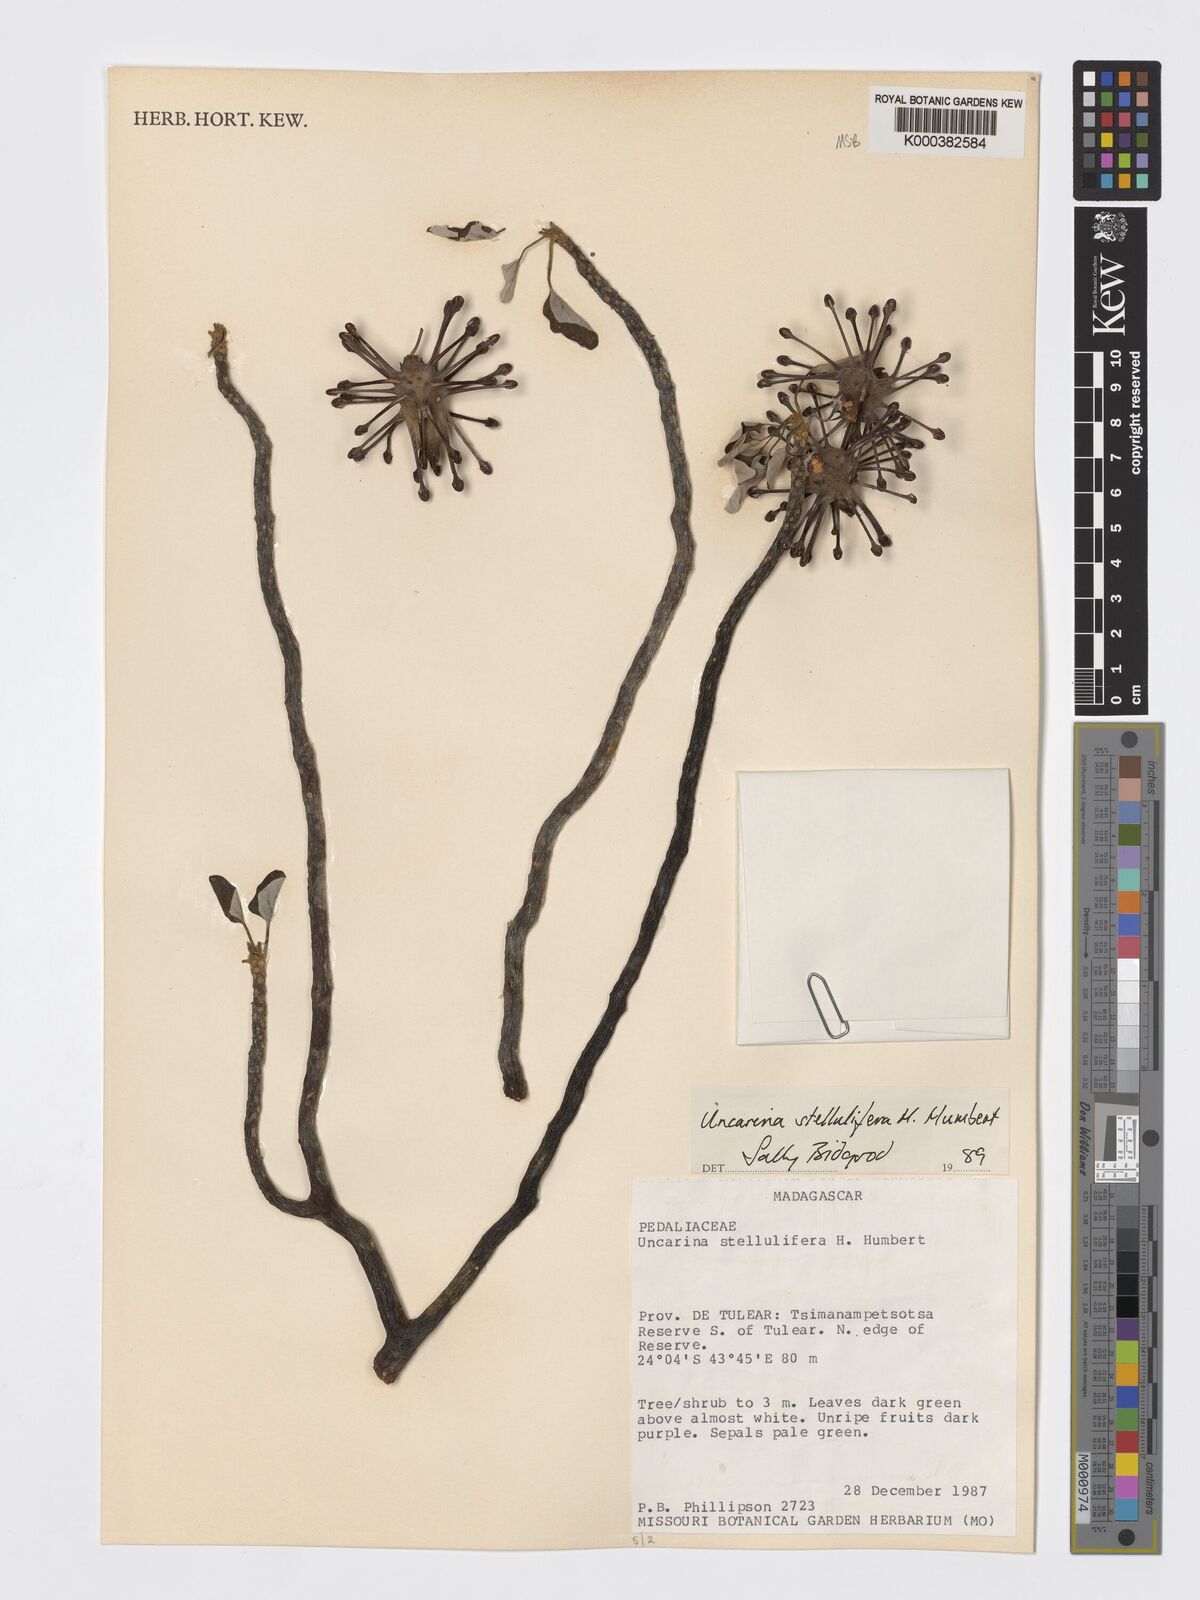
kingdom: Plantae
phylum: Tracheophyta
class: Magnoliopsida
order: Lamiales
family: Pedaliaceae
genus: Uncarina
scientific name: Uncarina stellulifera
